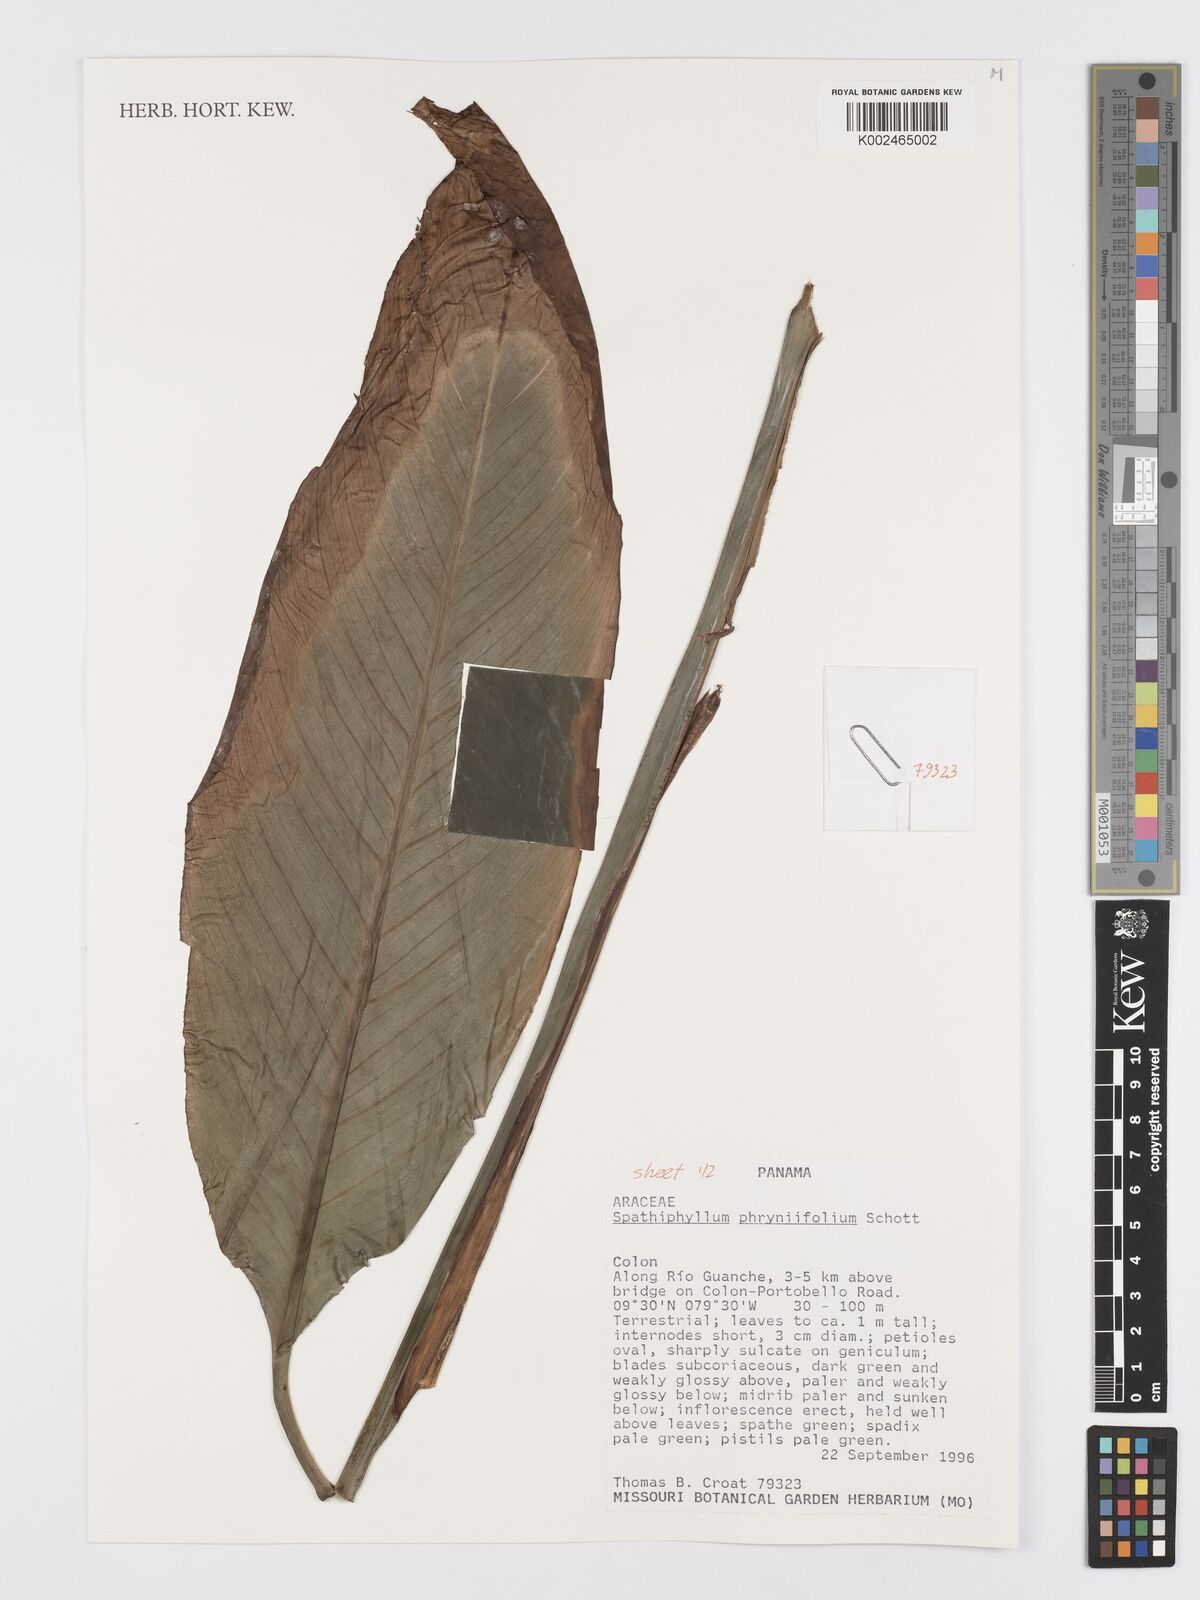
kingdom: Plantae
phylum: Tracheophyta
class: Liliopsida
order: Alismatales
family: Araceae
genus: Spathiphyllum
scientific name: Spathiphyllum phryniifolium
